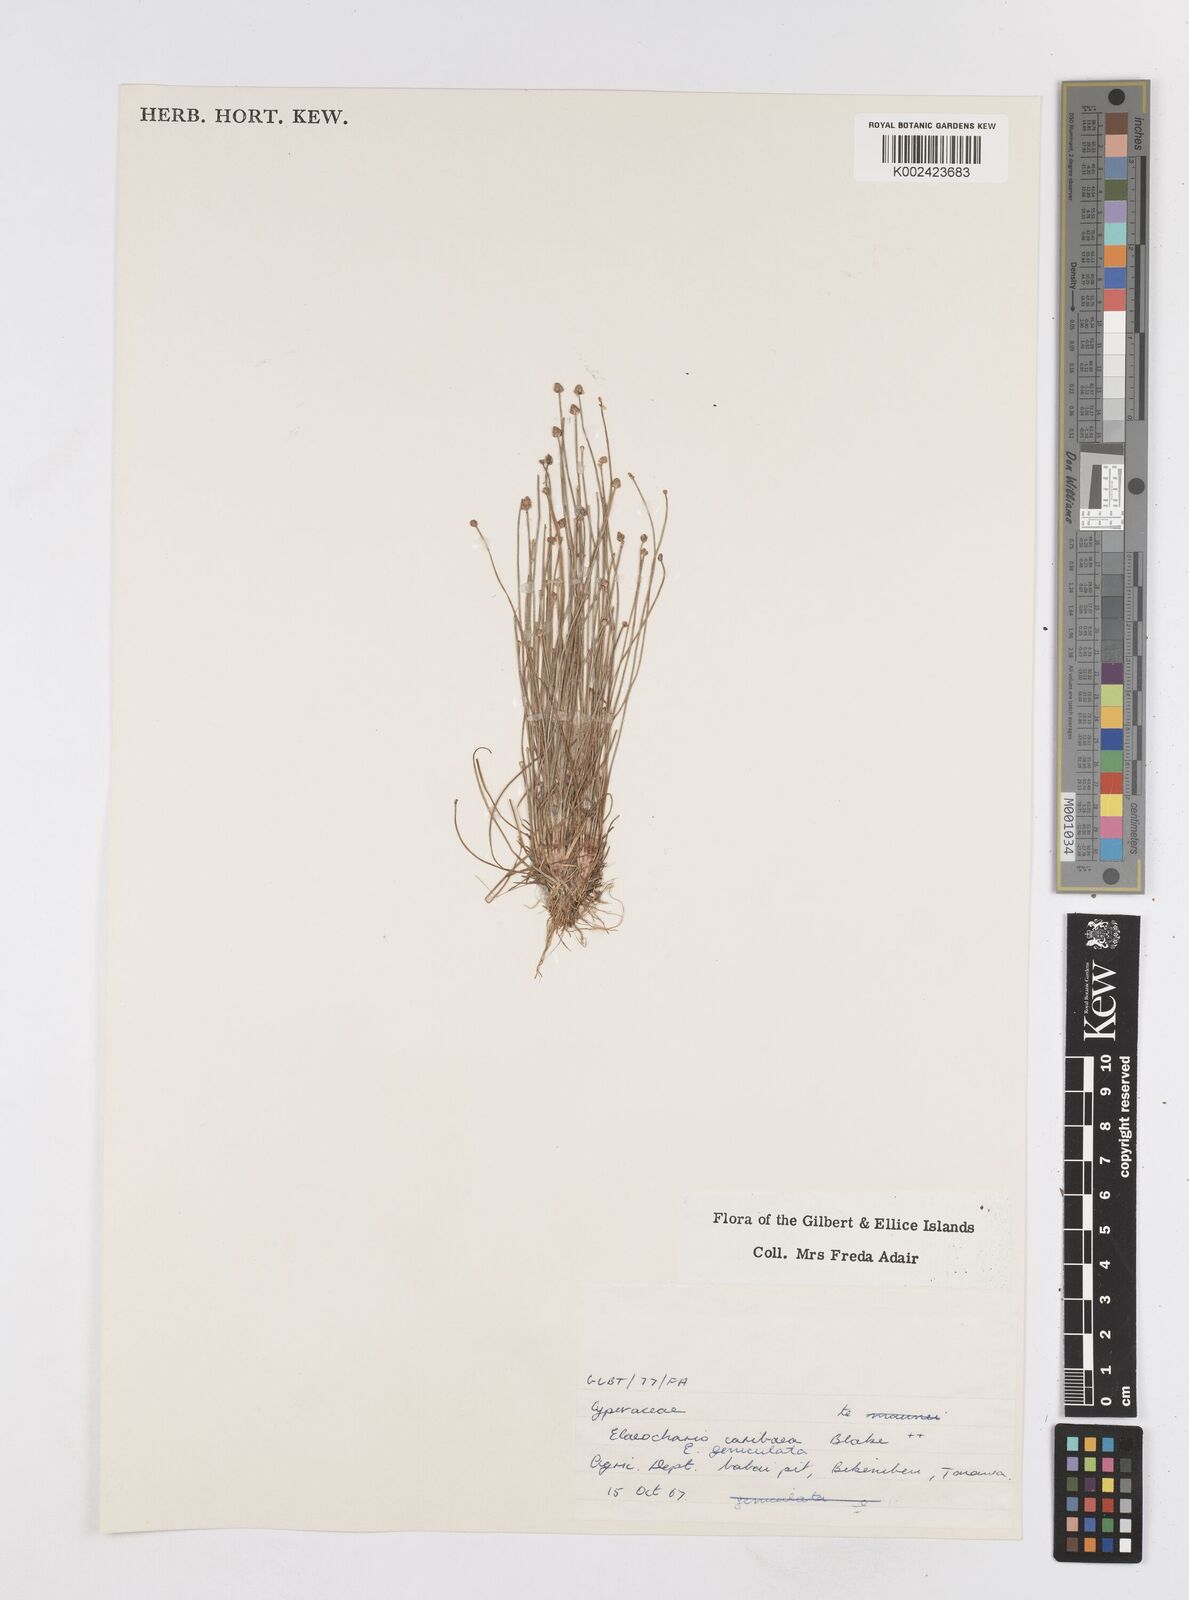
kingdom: Plantae
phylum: Tracheophyta
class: Liliopsida
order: Poales
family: Cyperaceae
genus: Eleocharis
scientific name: Eleocharis
